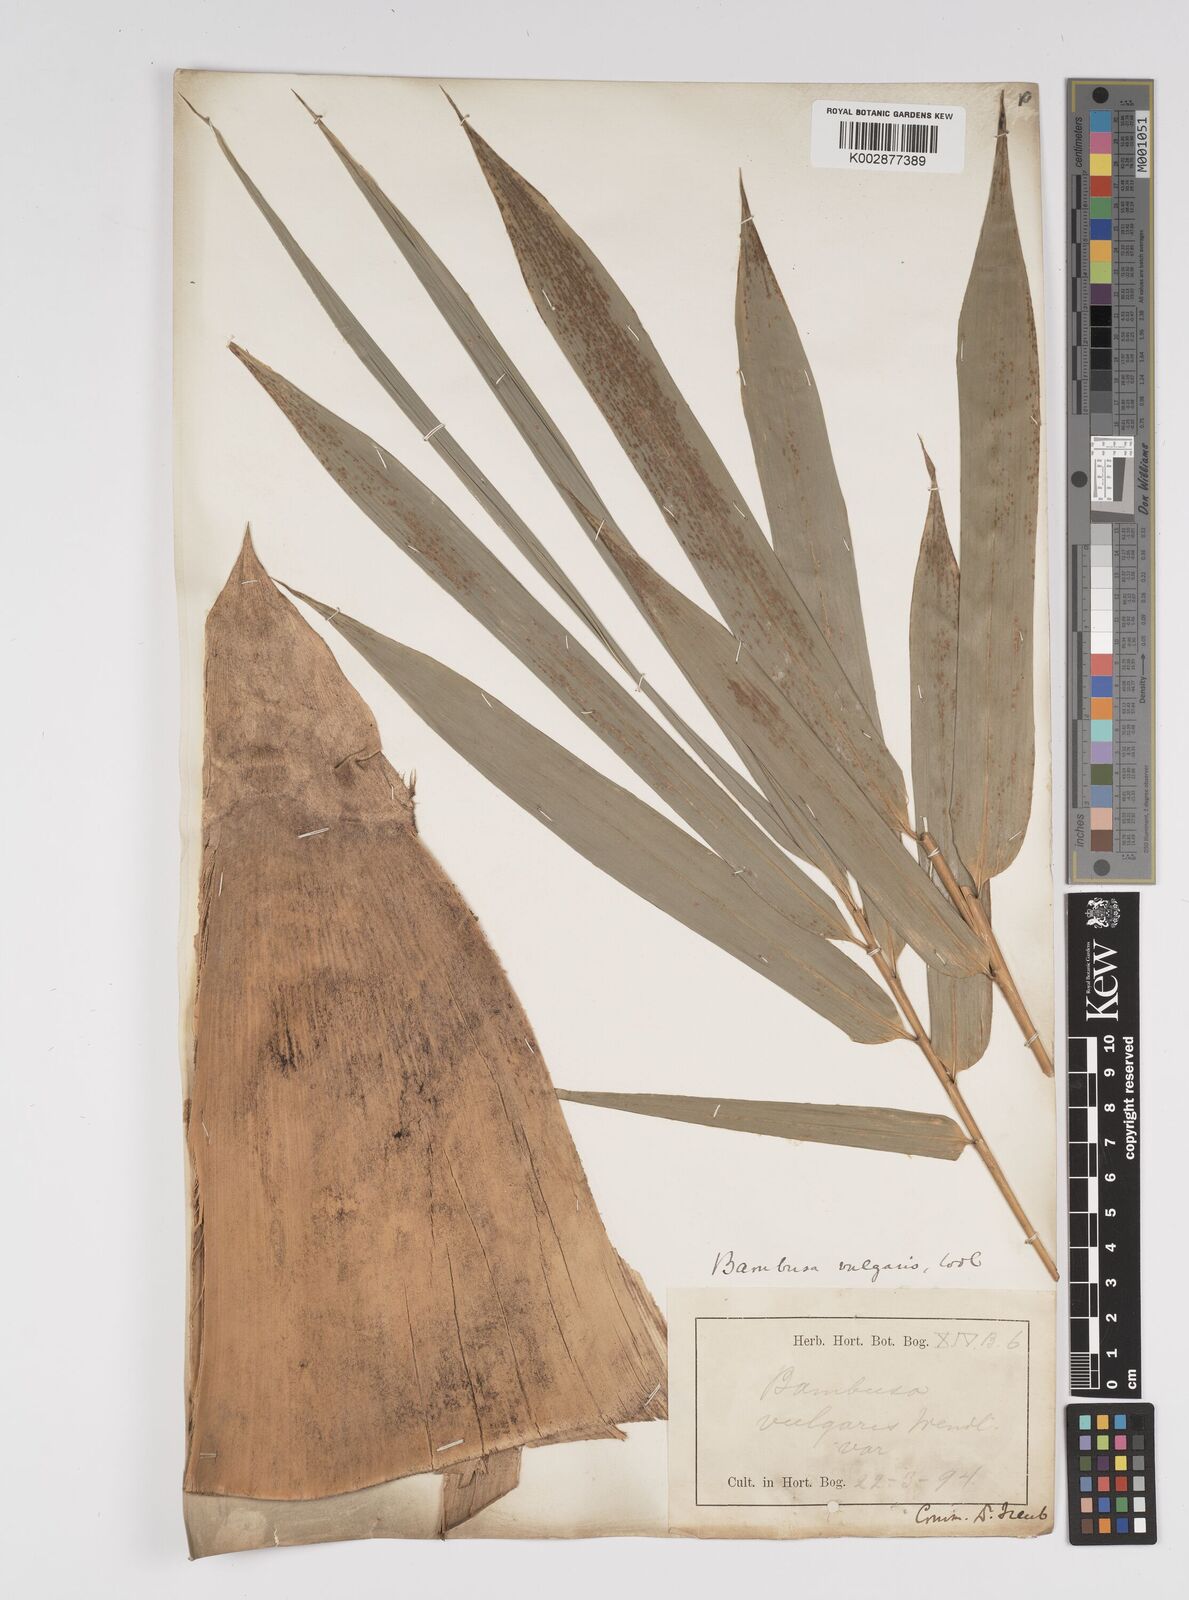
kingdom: Plantae
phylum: Tracheophyta
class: Liliopsida
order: Poales
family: Poaceae
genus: Bambusa
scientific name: Bambusa vulgaris
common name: Common bamboo
